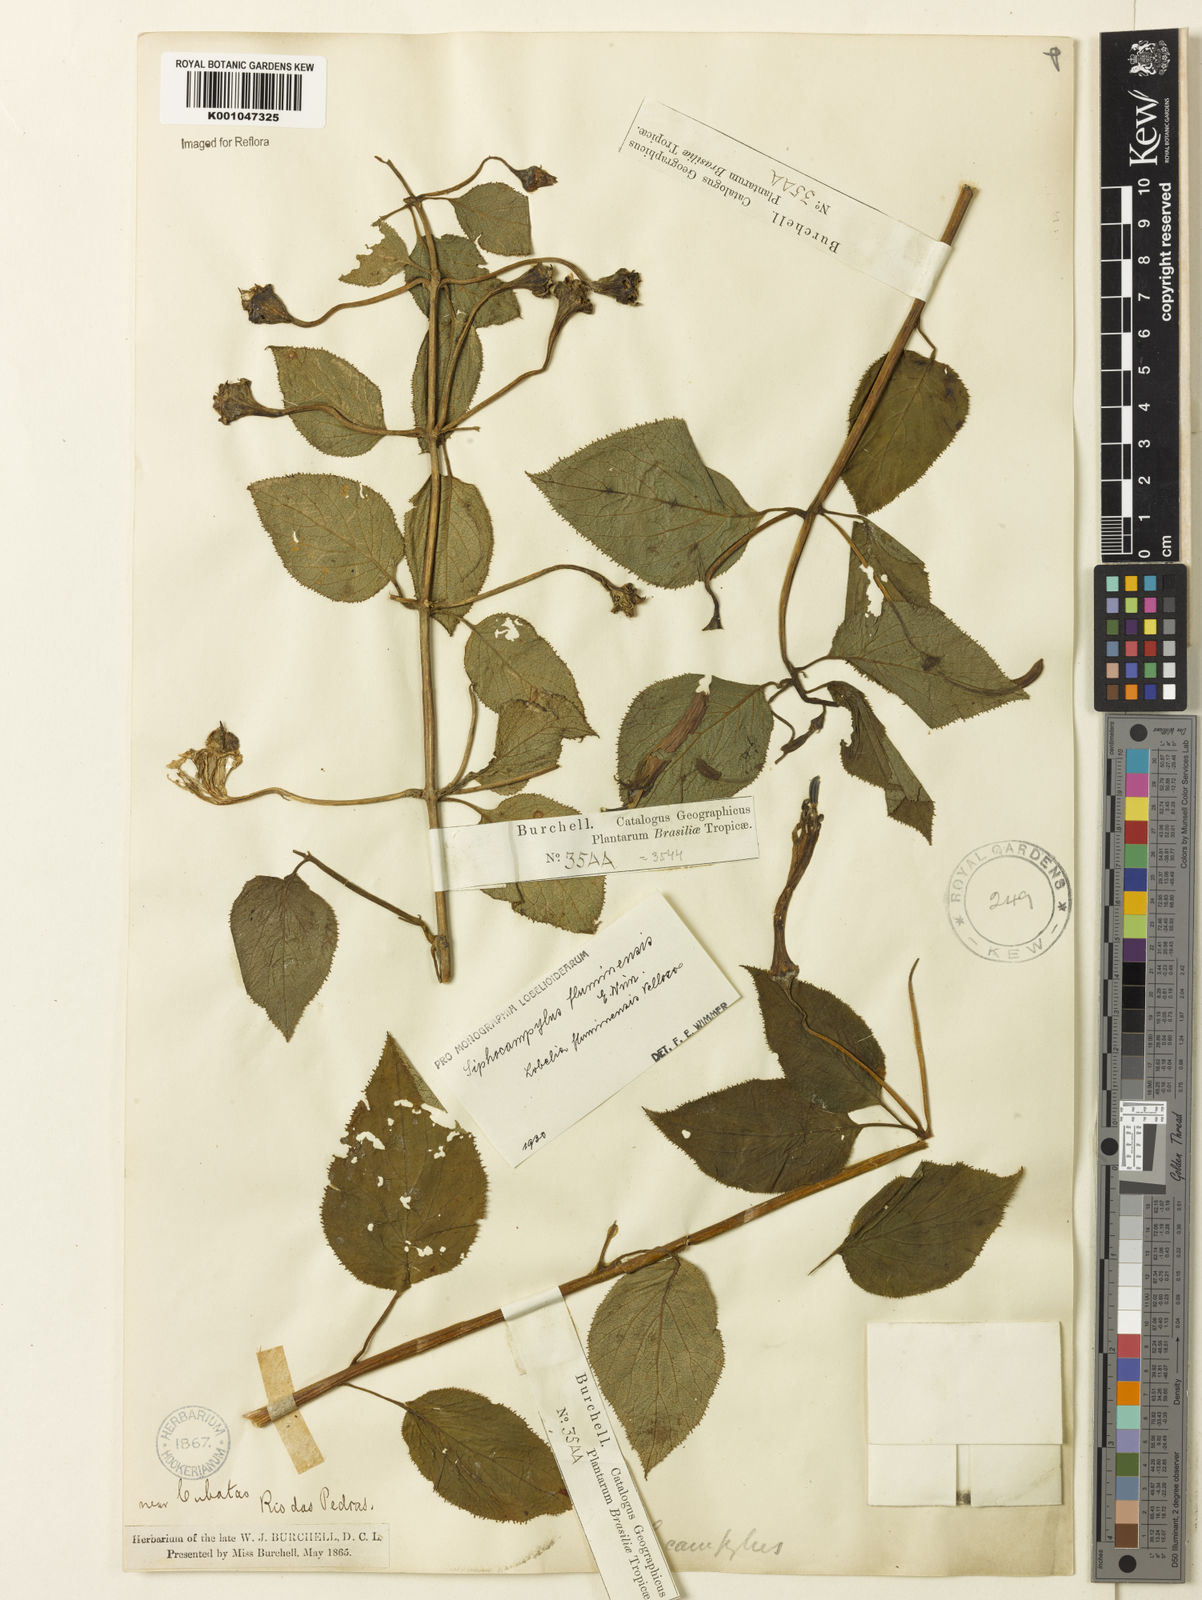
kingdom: Plantae
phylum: Tracheophyta
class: Magnoliopsida
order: Asterales
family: Campanulaceae
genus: Siphocampylus
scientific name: Siphocampylus fluminensis
